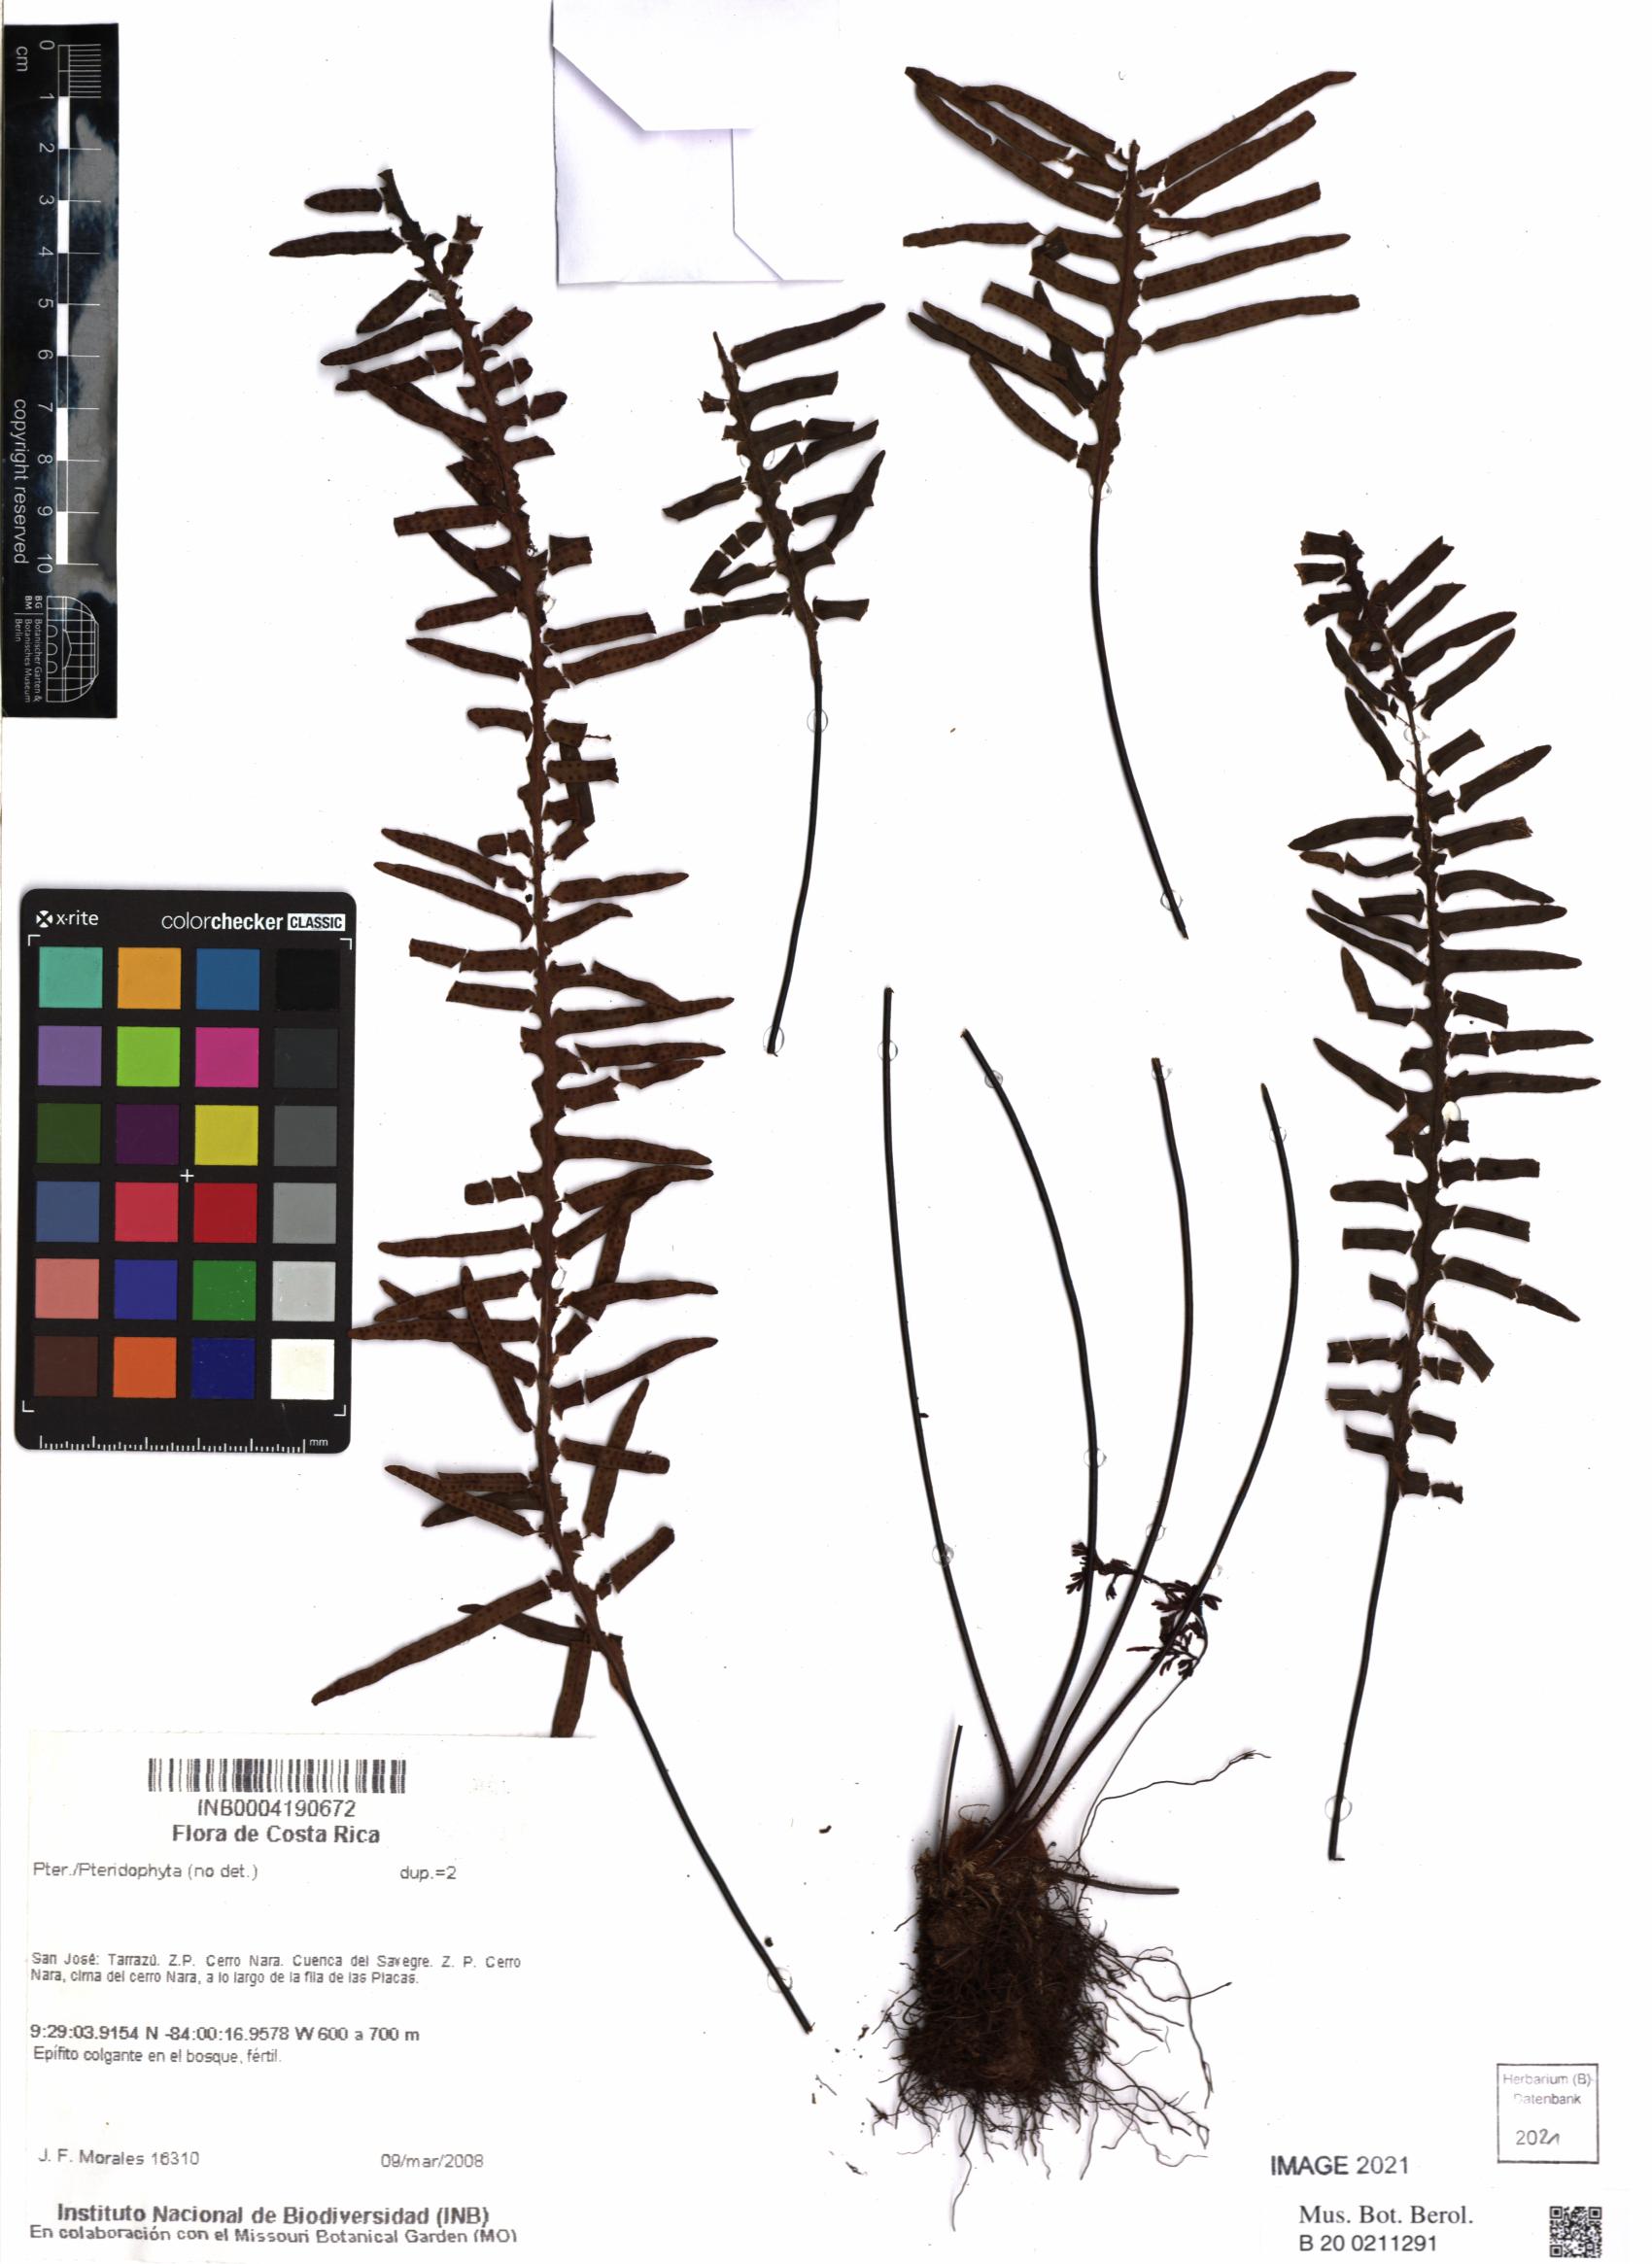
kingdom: Plantae
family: Pteridophyta
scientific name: Pteridophyta
